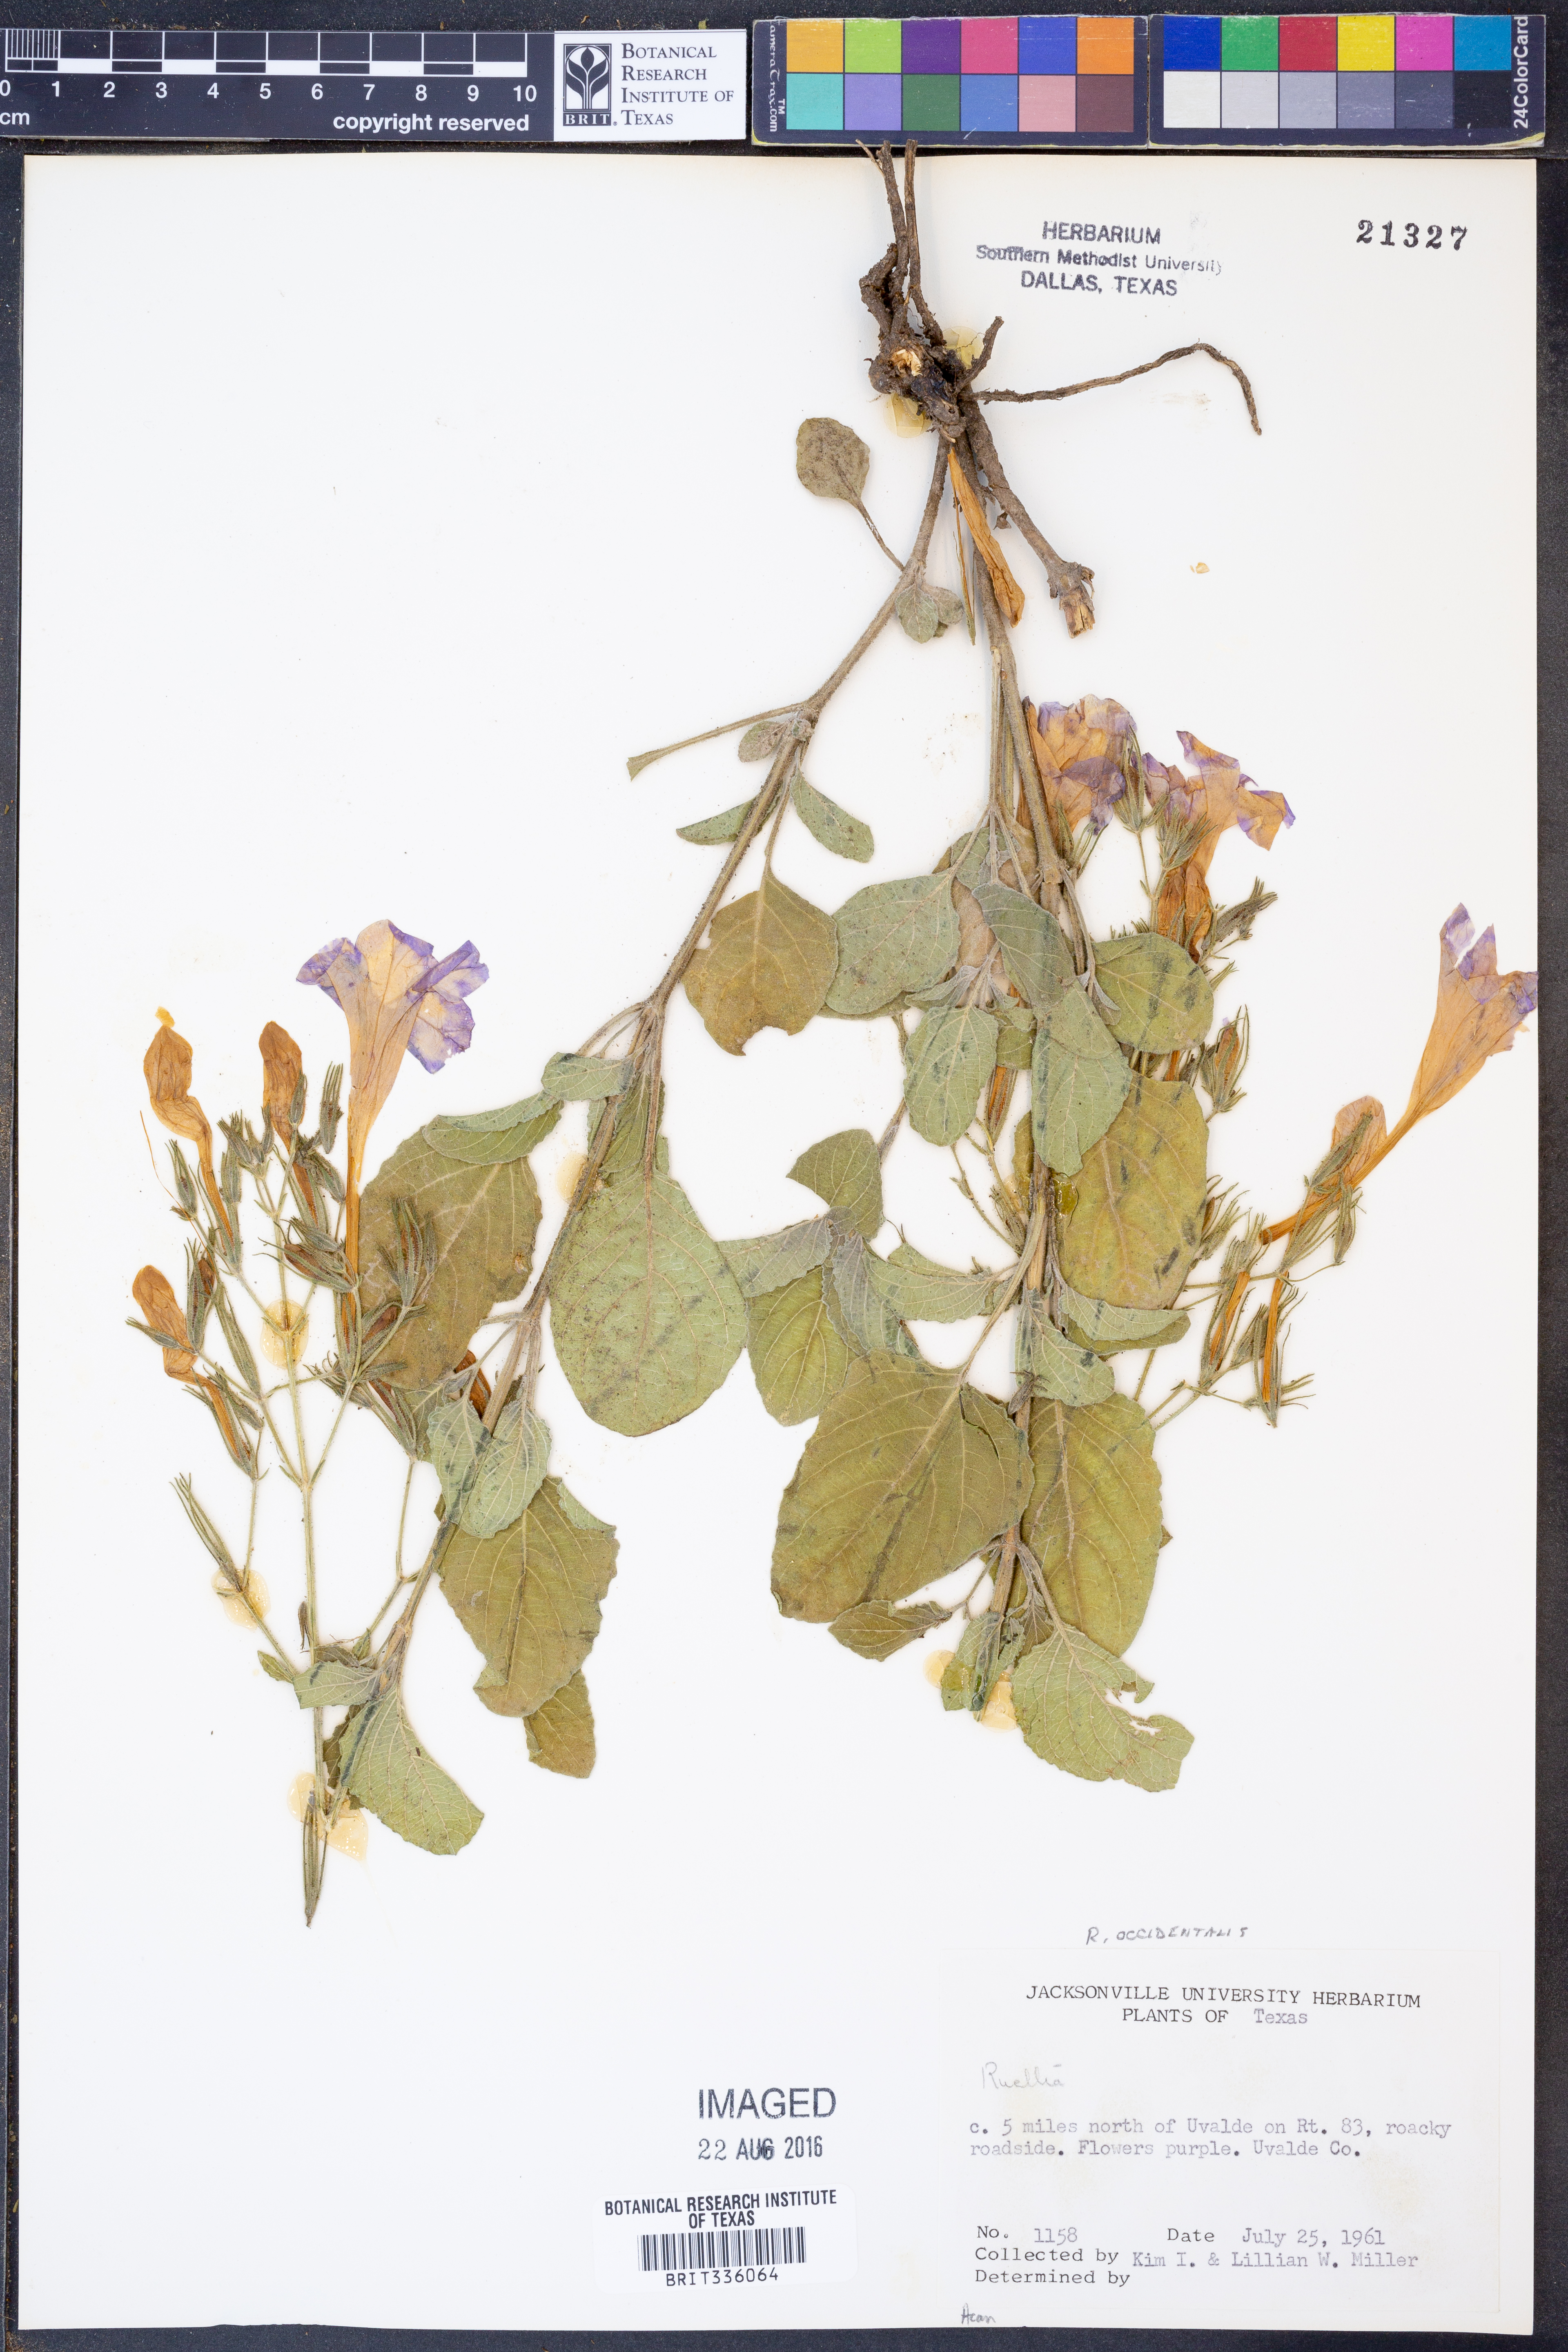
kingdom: Plantae
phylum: Tracheophyta
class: Magnoliopsida
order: Lamiales
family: Acanthaceae
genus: Ruellia
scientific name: Ruellia ciliatiflora
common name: Hairyflower wild petunia
